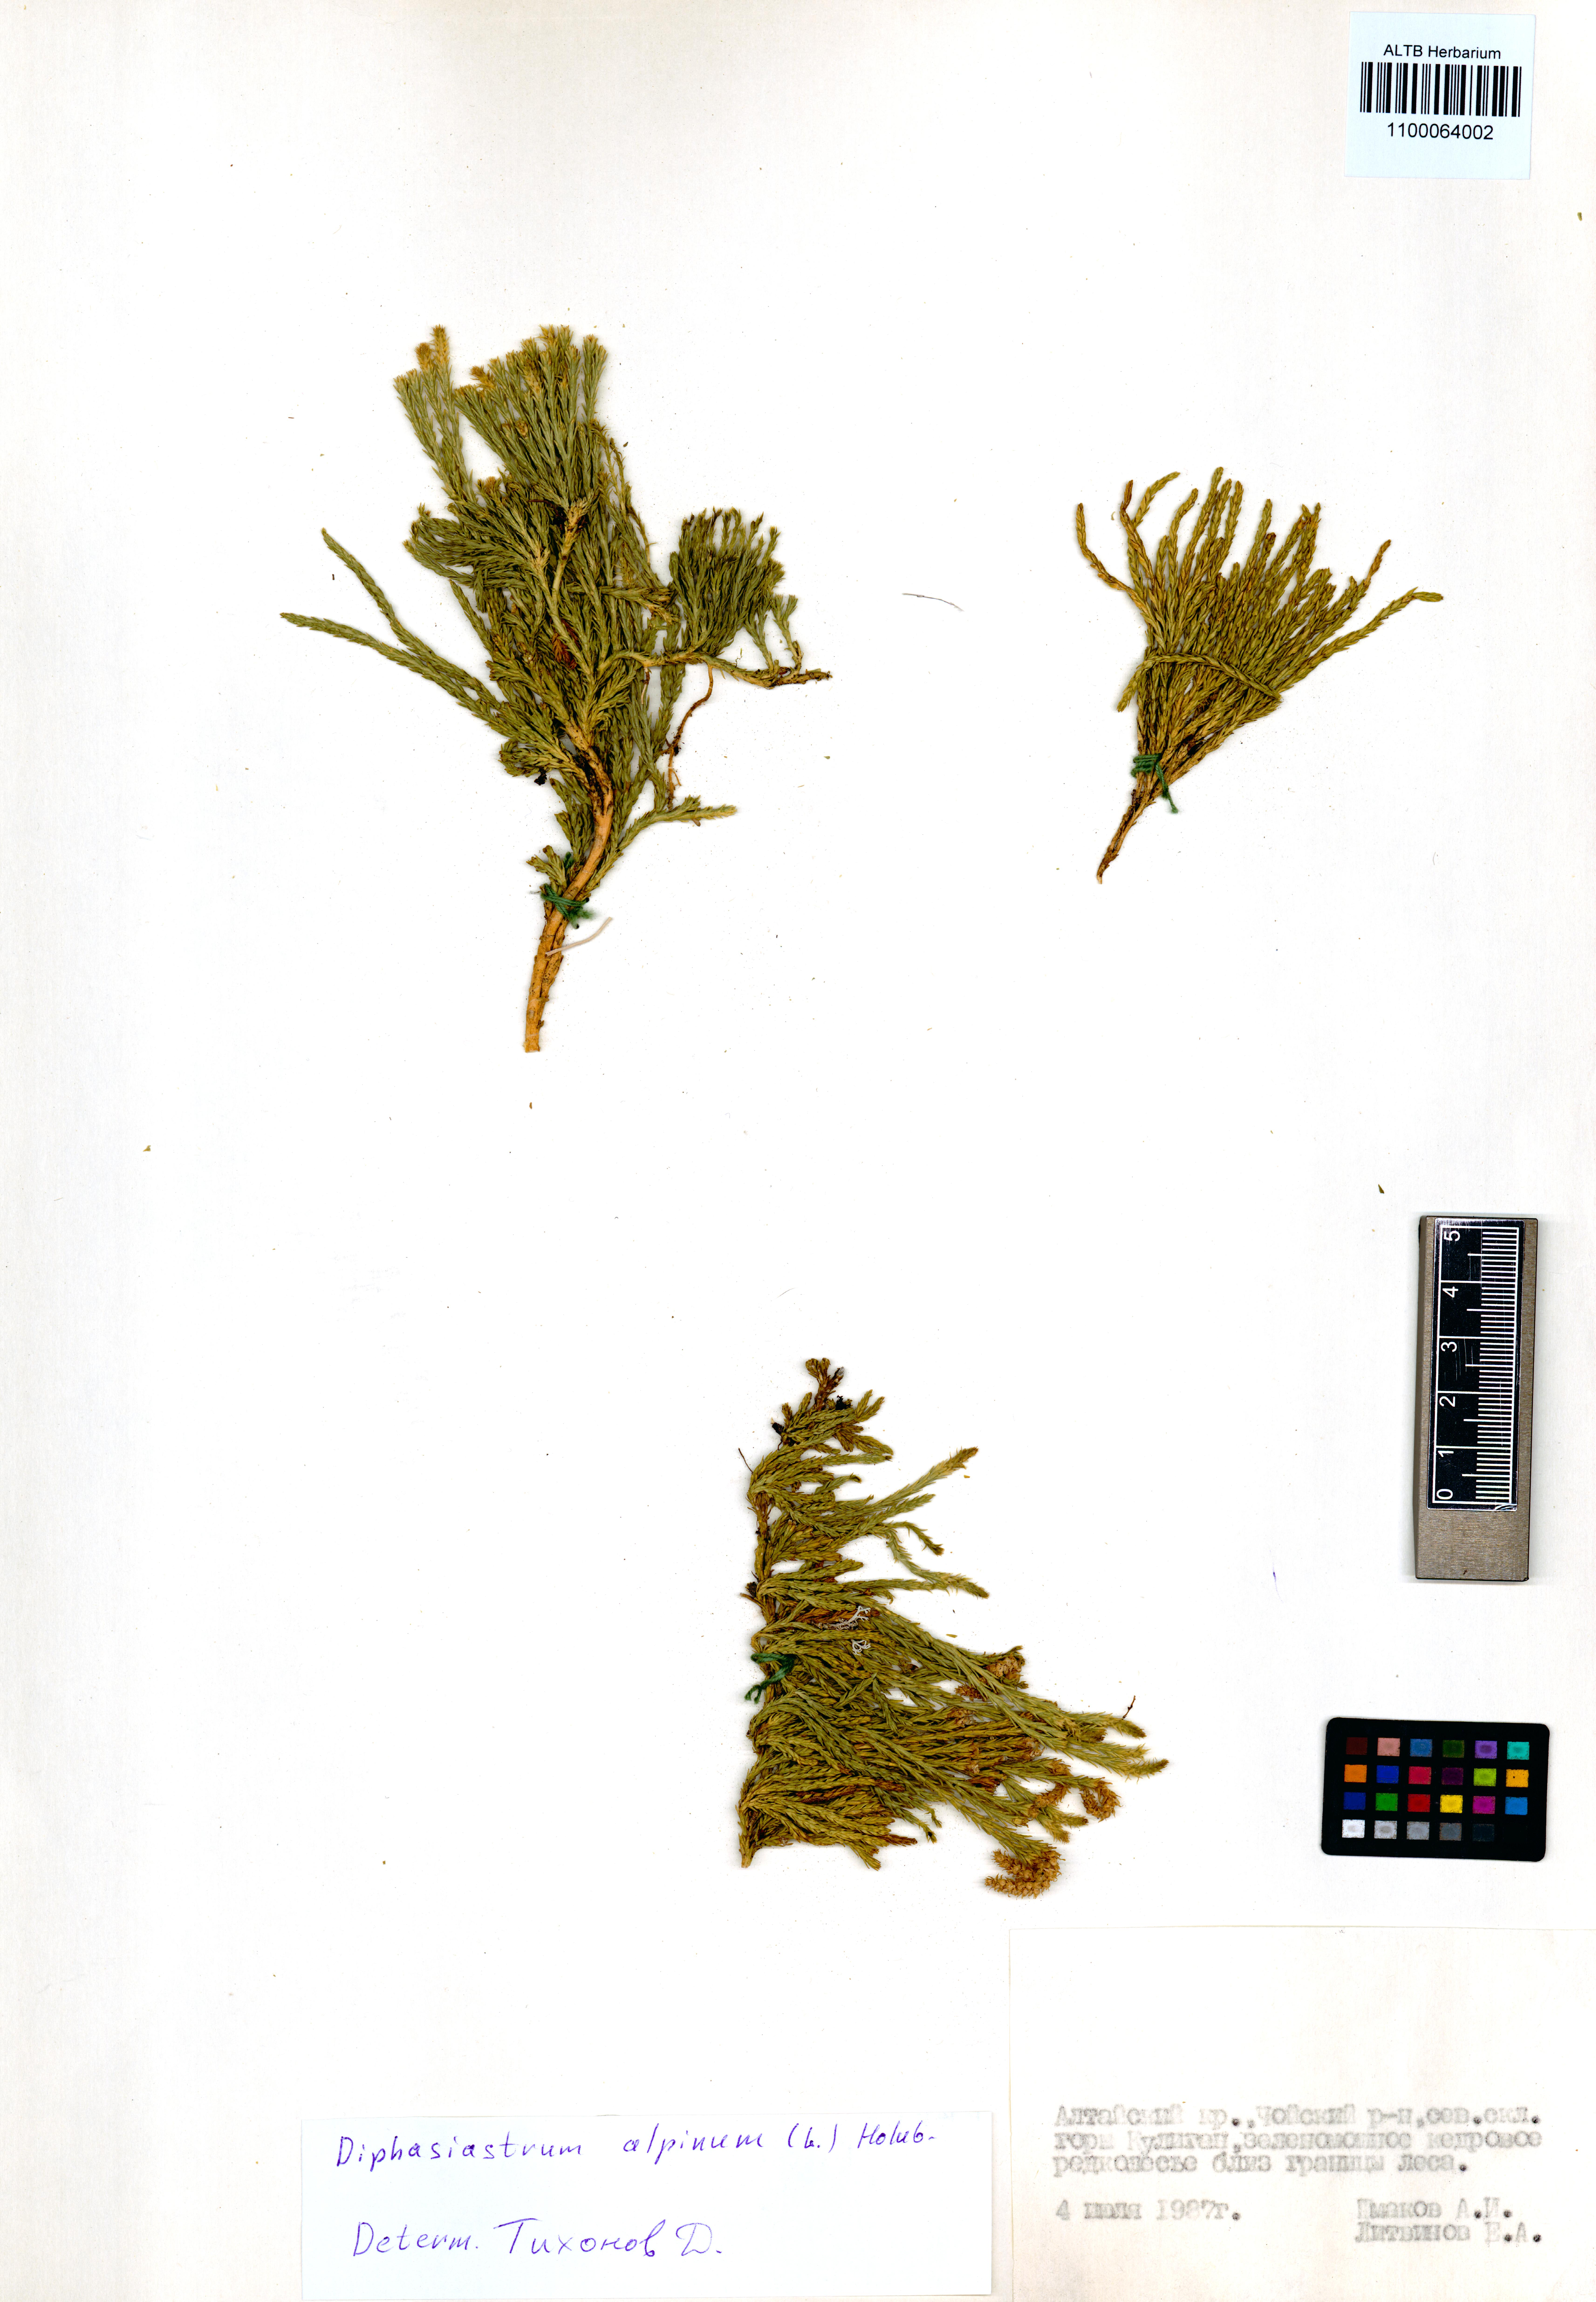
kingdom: Plantae
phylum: Tracheophyta
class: Lycopodiopsida
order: Lycopodiales
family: Lycopodiaceae
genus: Diphasiastrum
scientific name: Diphasiastrum alpinum
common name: Alpine clubmoss
